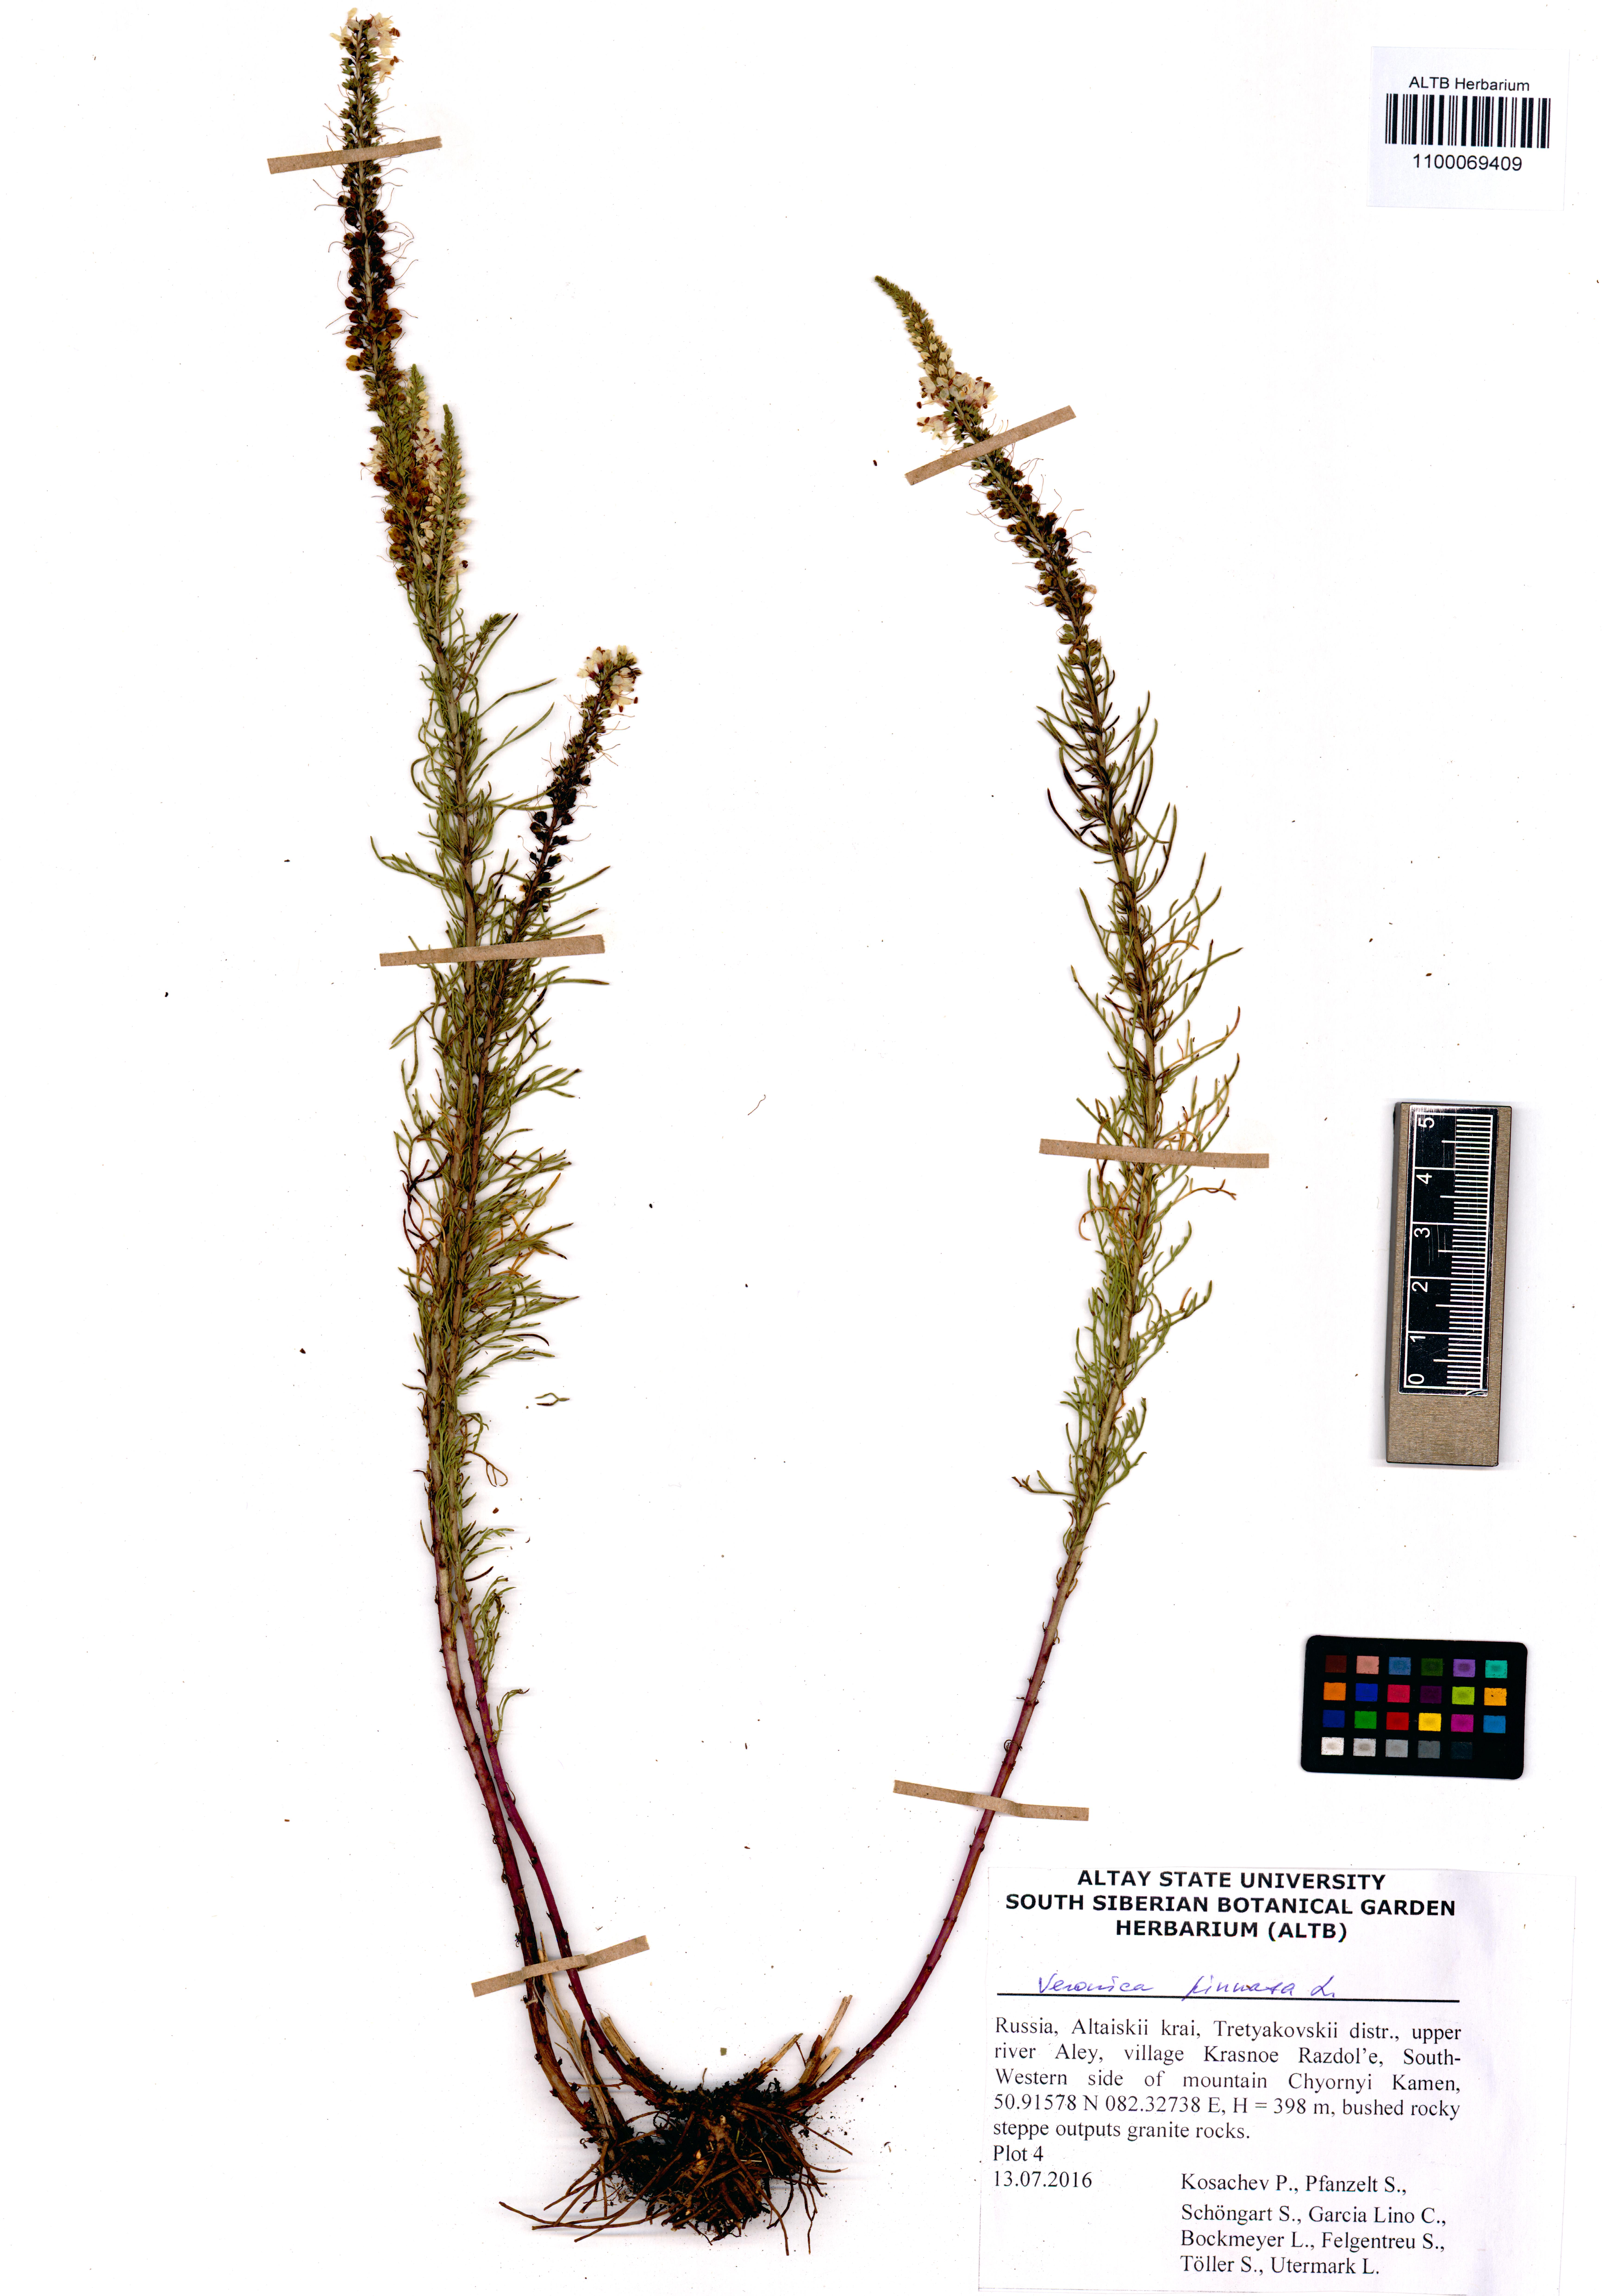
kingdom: Plantae
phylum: Tracheophyta
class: Magnoliopsida
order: Lamiales
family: Plantaginaceae
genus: Veronica
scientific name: Veronica pinnata
